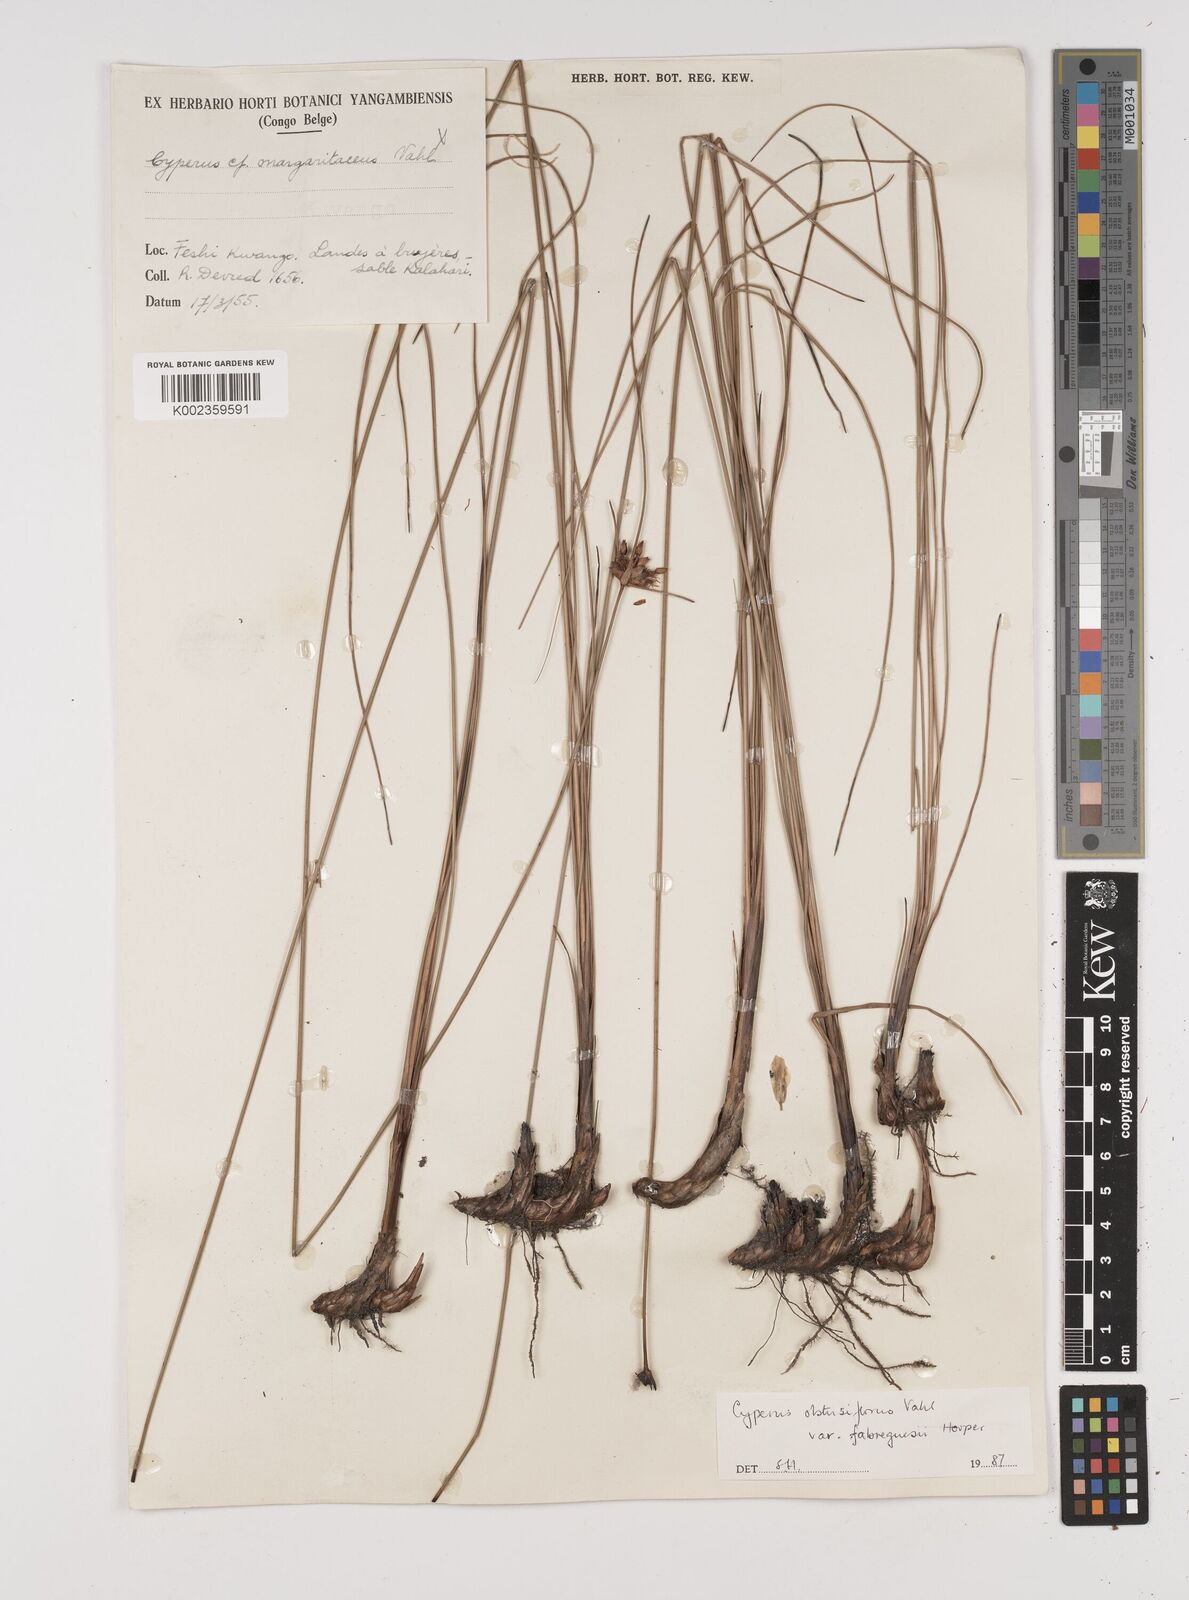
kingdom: Plantae
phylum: Tracheophyta
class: Liliopsida
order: Poales
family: Cyperaceae
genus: Cyperus
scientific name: Cyperus niveus
